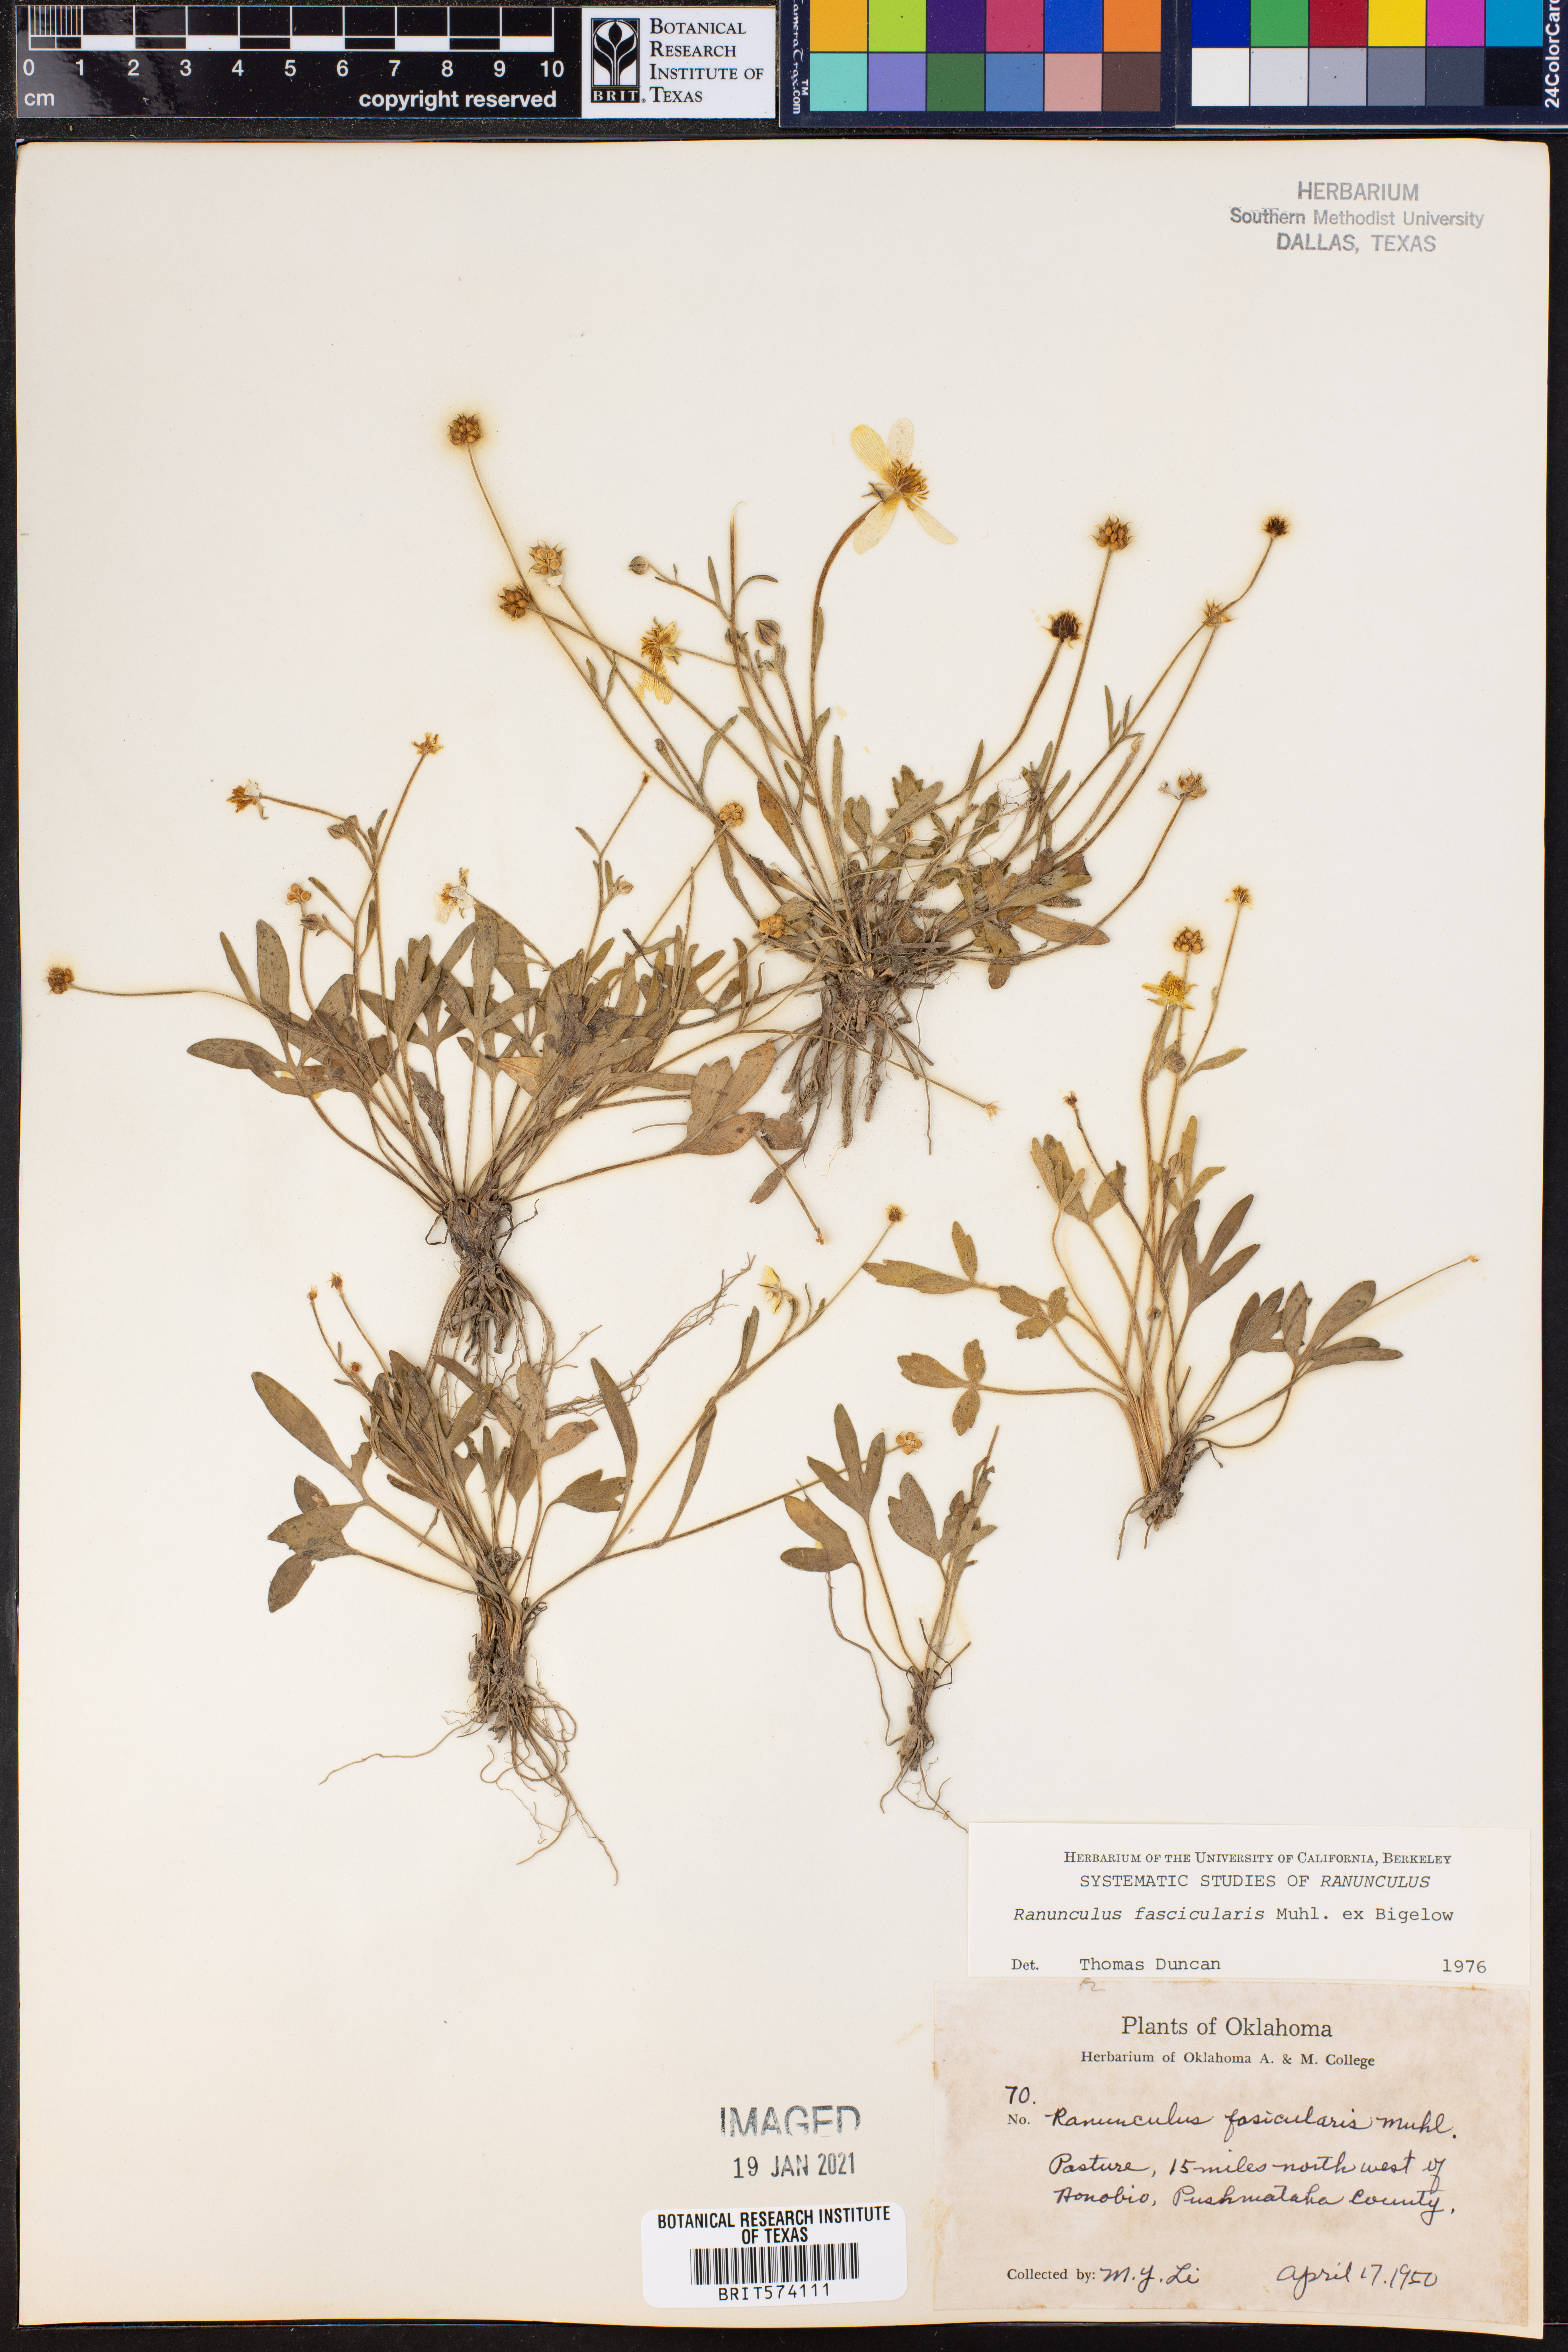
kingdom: Plantae
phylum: Tracheophyta
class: Magnoliopsida
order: Ranunculales
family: Ranunculaceae
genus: Ranunculus
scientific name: Ranunculus fascicularis
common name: Early buttercup
